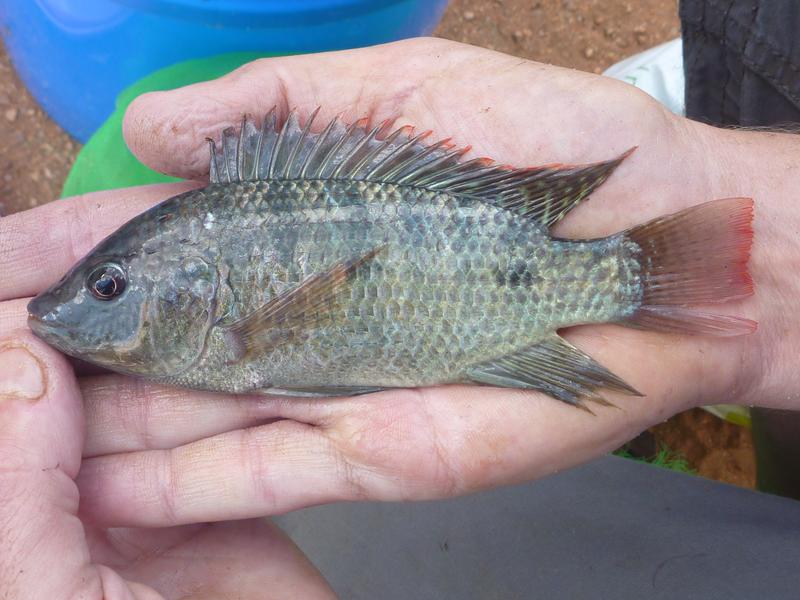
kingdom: Animalia
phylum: Chordata
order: Perciformes
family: Cichlidae
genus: Oreochromis
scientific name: Oreochromis shiranus
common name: Chilwa tilapia
